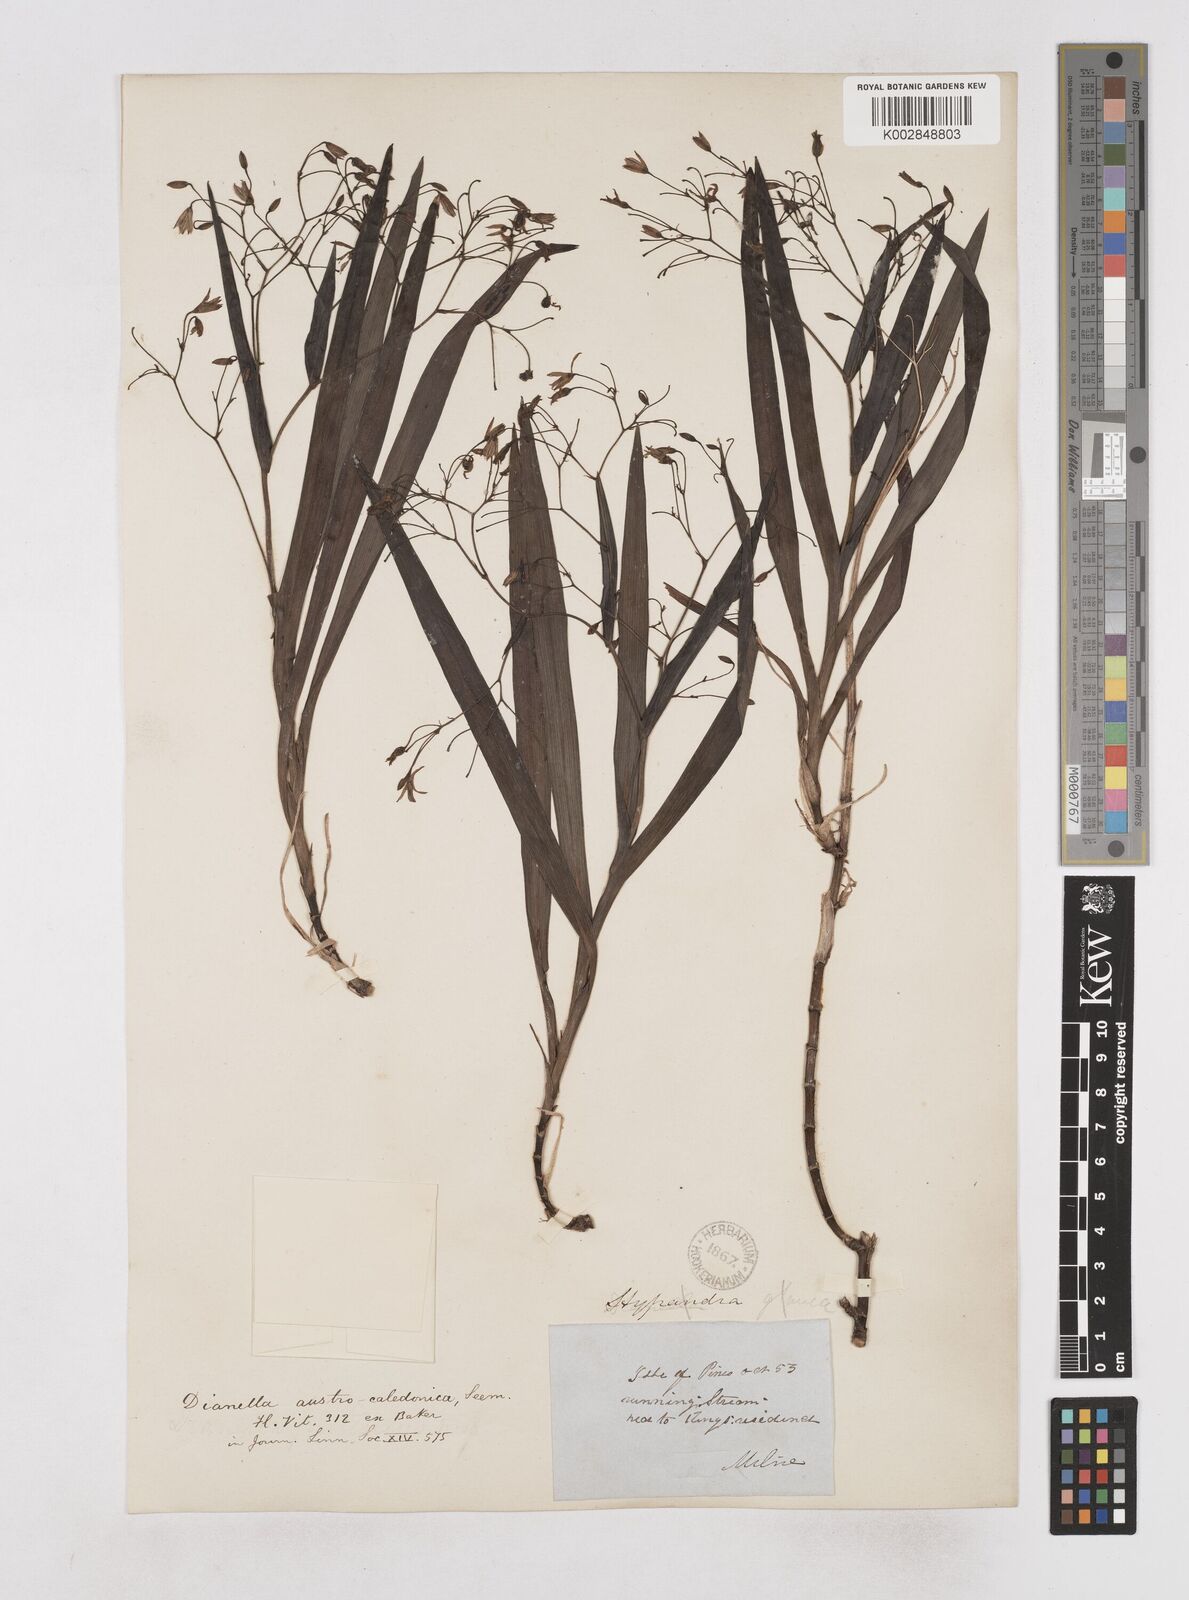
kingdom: Plantae
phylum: Tracheophyta
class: Liliopsida
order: Asparagales
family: Asphodelaceae
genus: Rhuacophila
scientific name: Rhuacophila javanica
